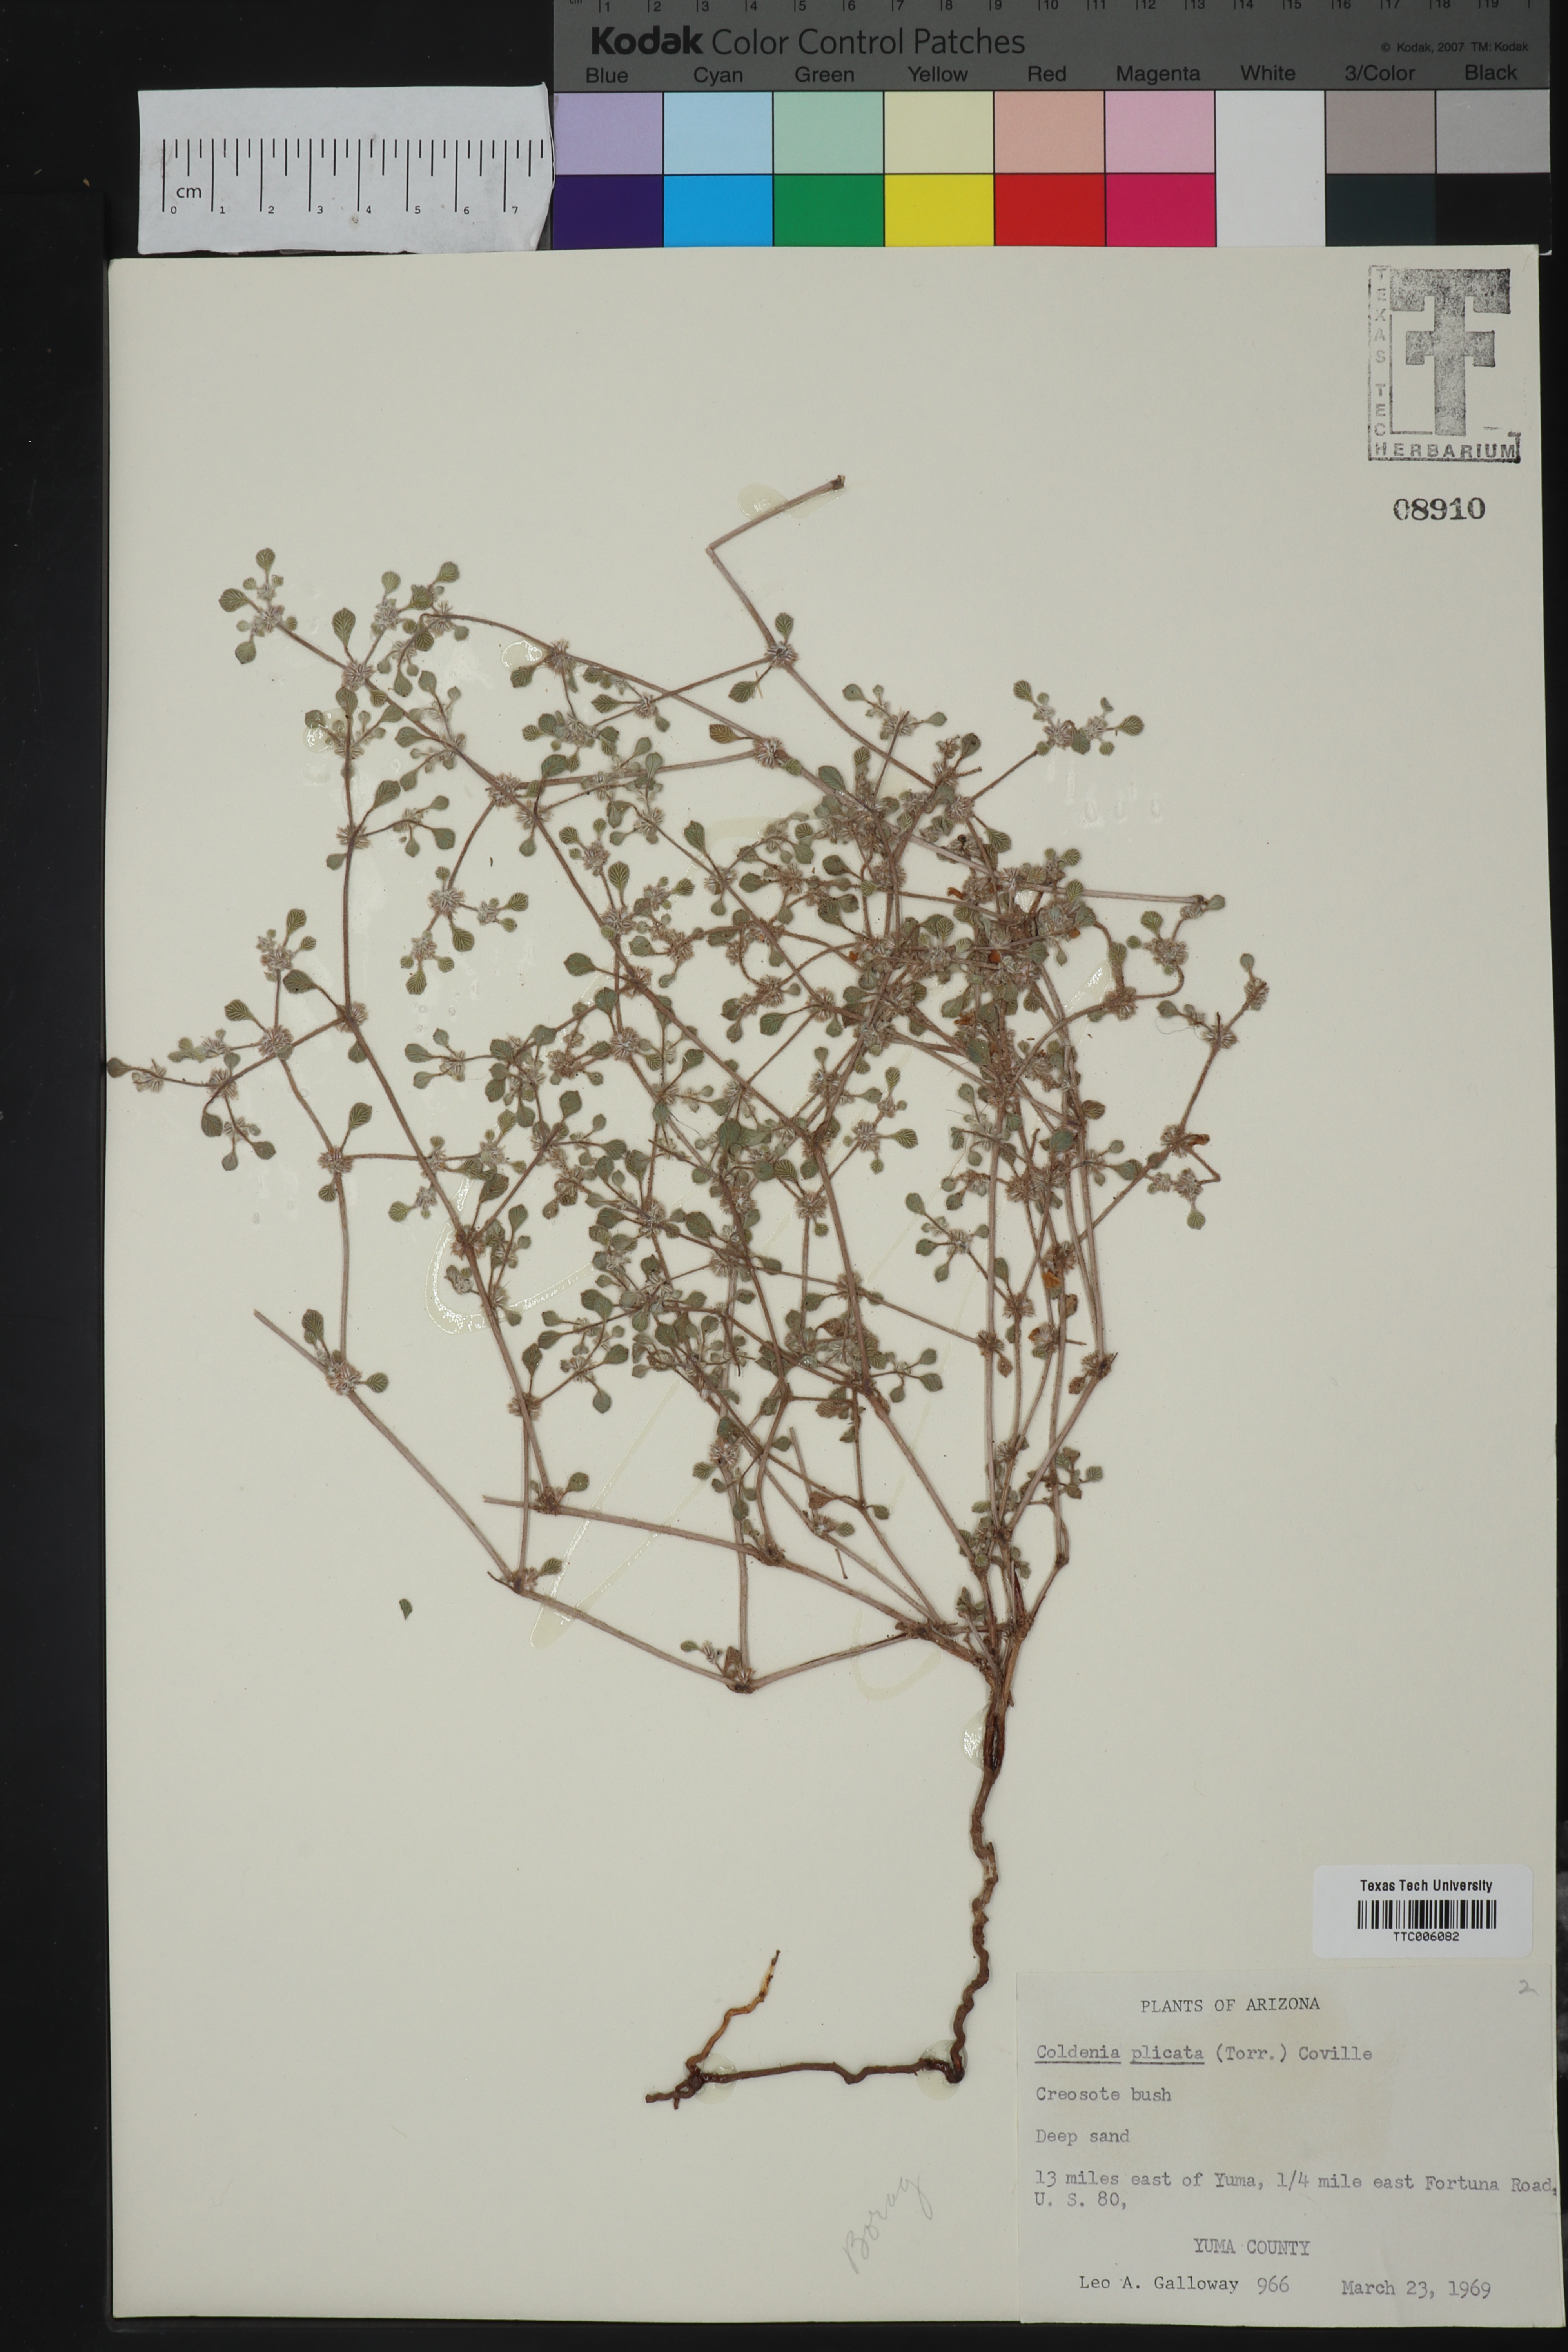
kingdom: Plantae
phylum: Tracheophyta
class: Magnoliopsida
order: Boraginales
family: Ehretiaceae
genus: Tiquilia
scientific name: Tiquilia plicata
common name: Fan-leaf tiquilia
